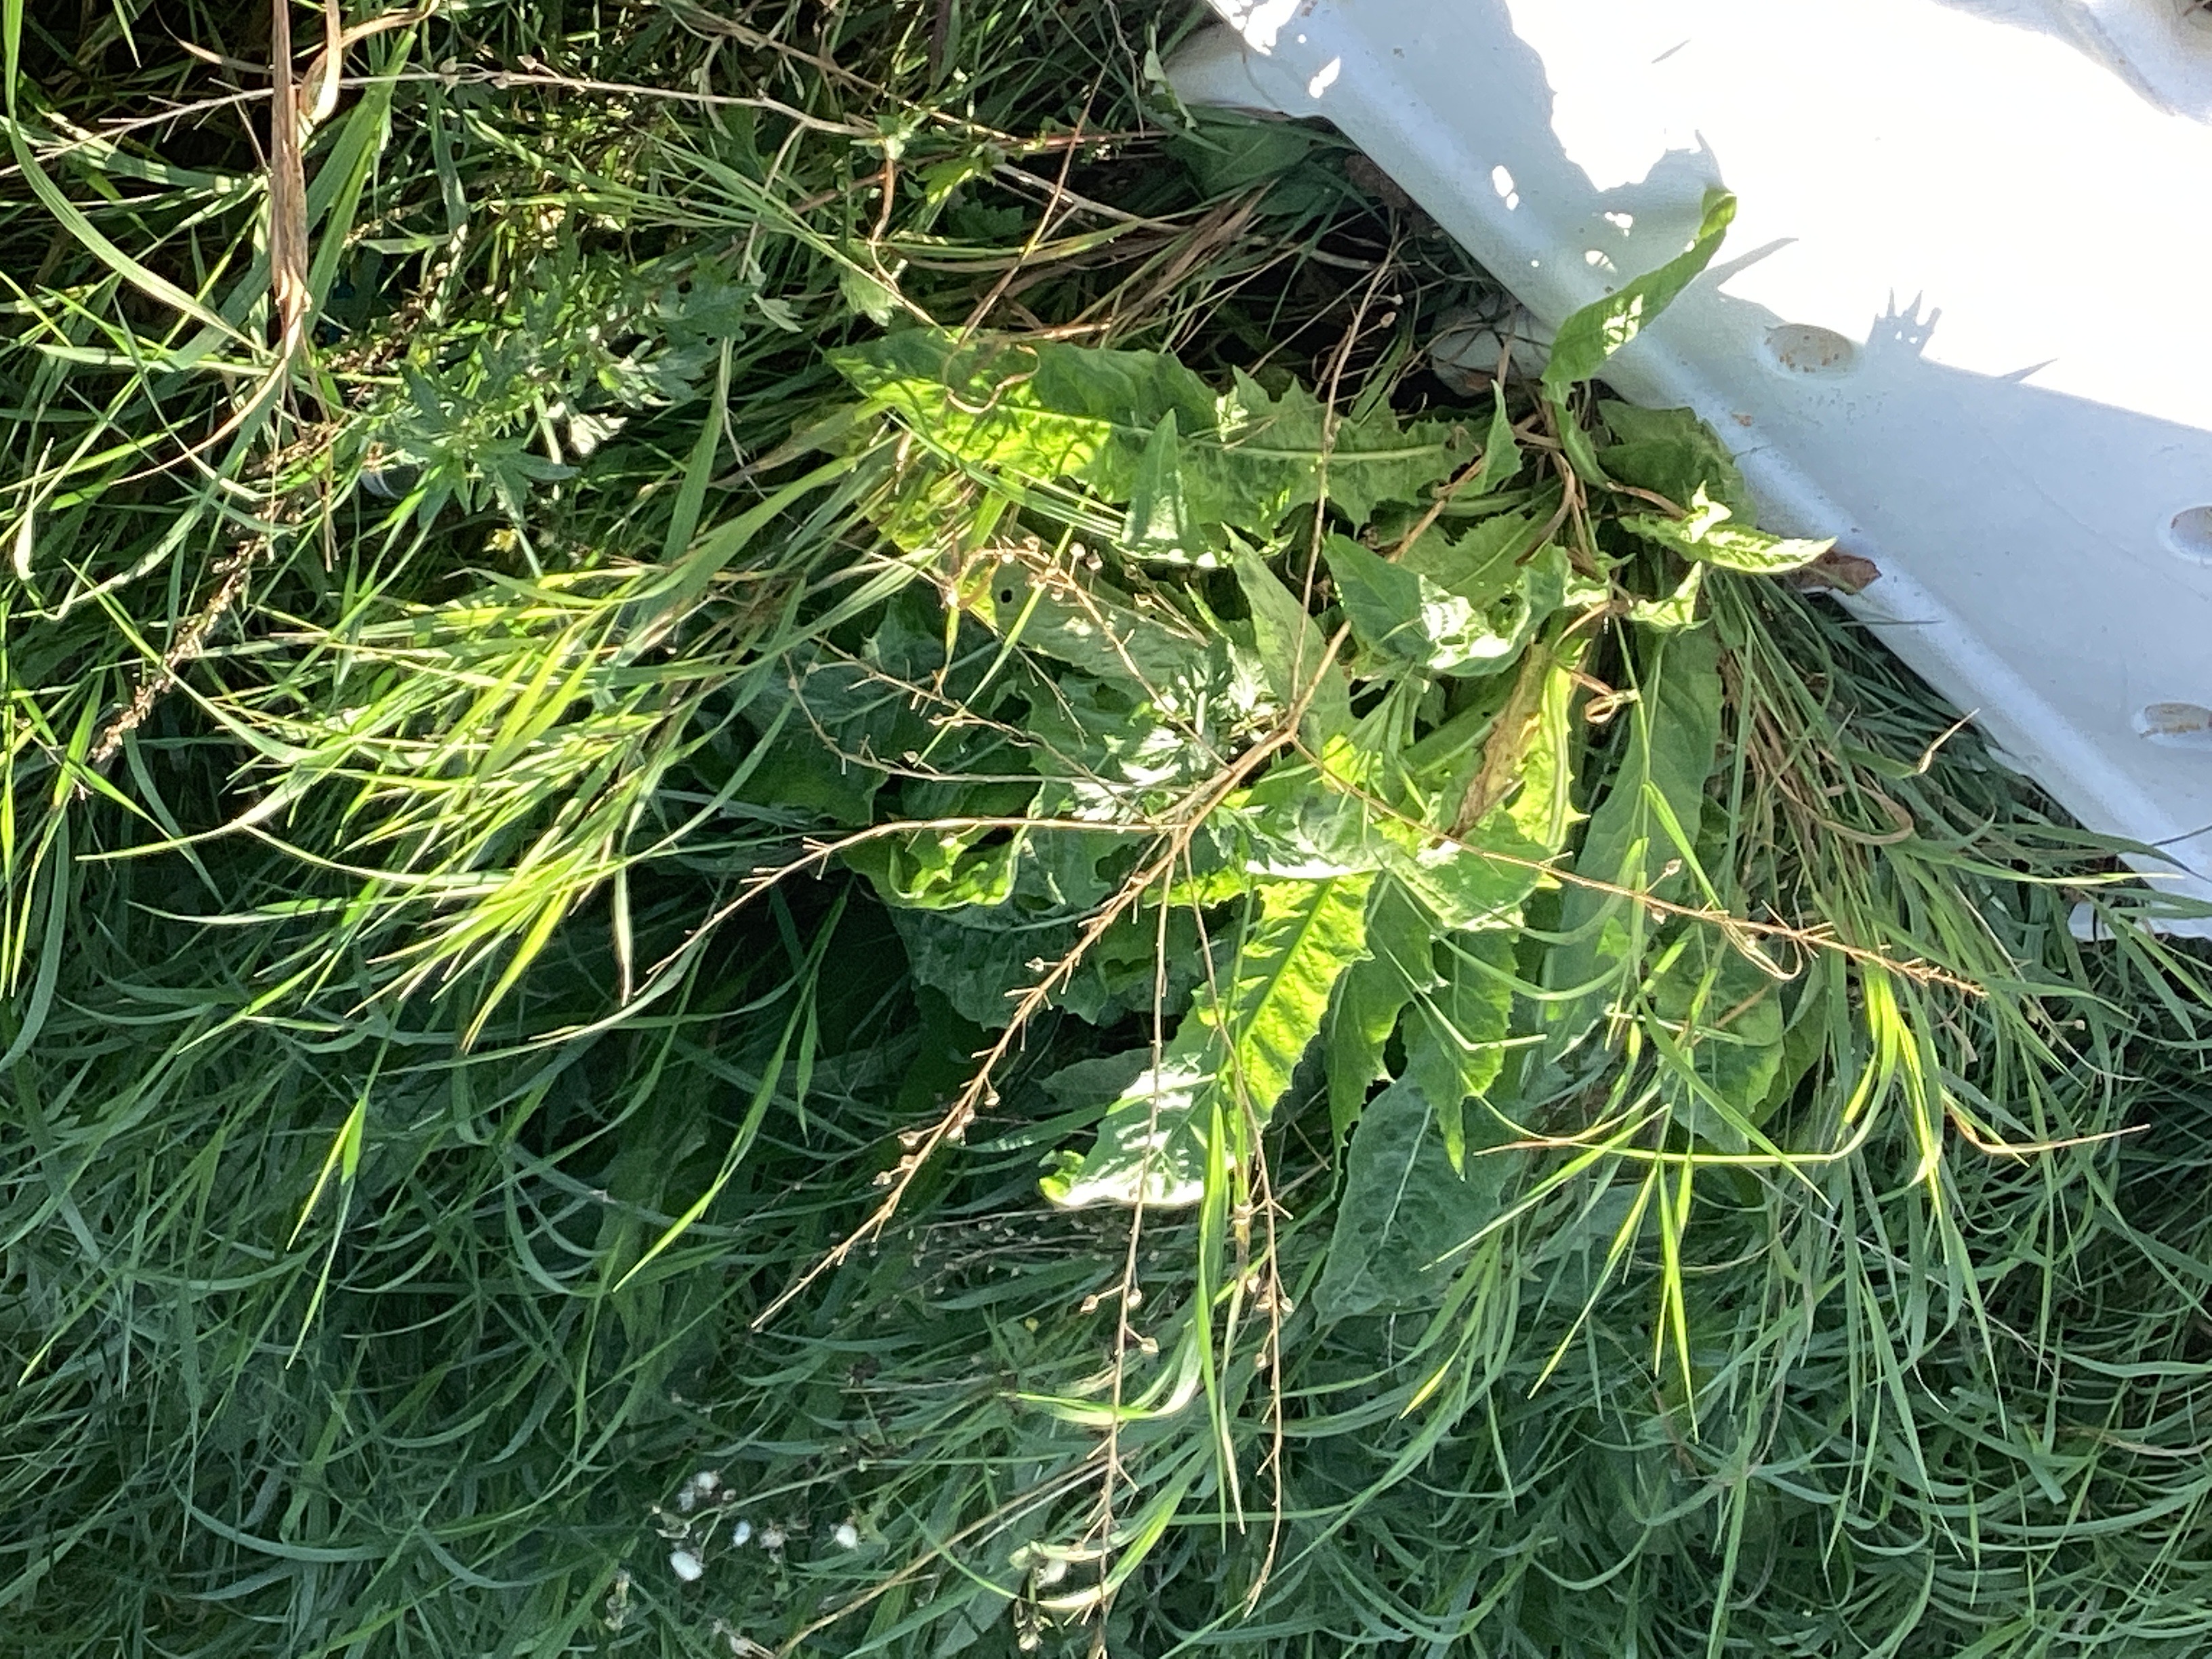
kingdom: Plantae
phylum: Tracheophyta
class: Magnoliopsida
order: Brassicales
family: Brassicaceae
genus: Bunias
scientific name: Bunias orientalis
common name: russekål
